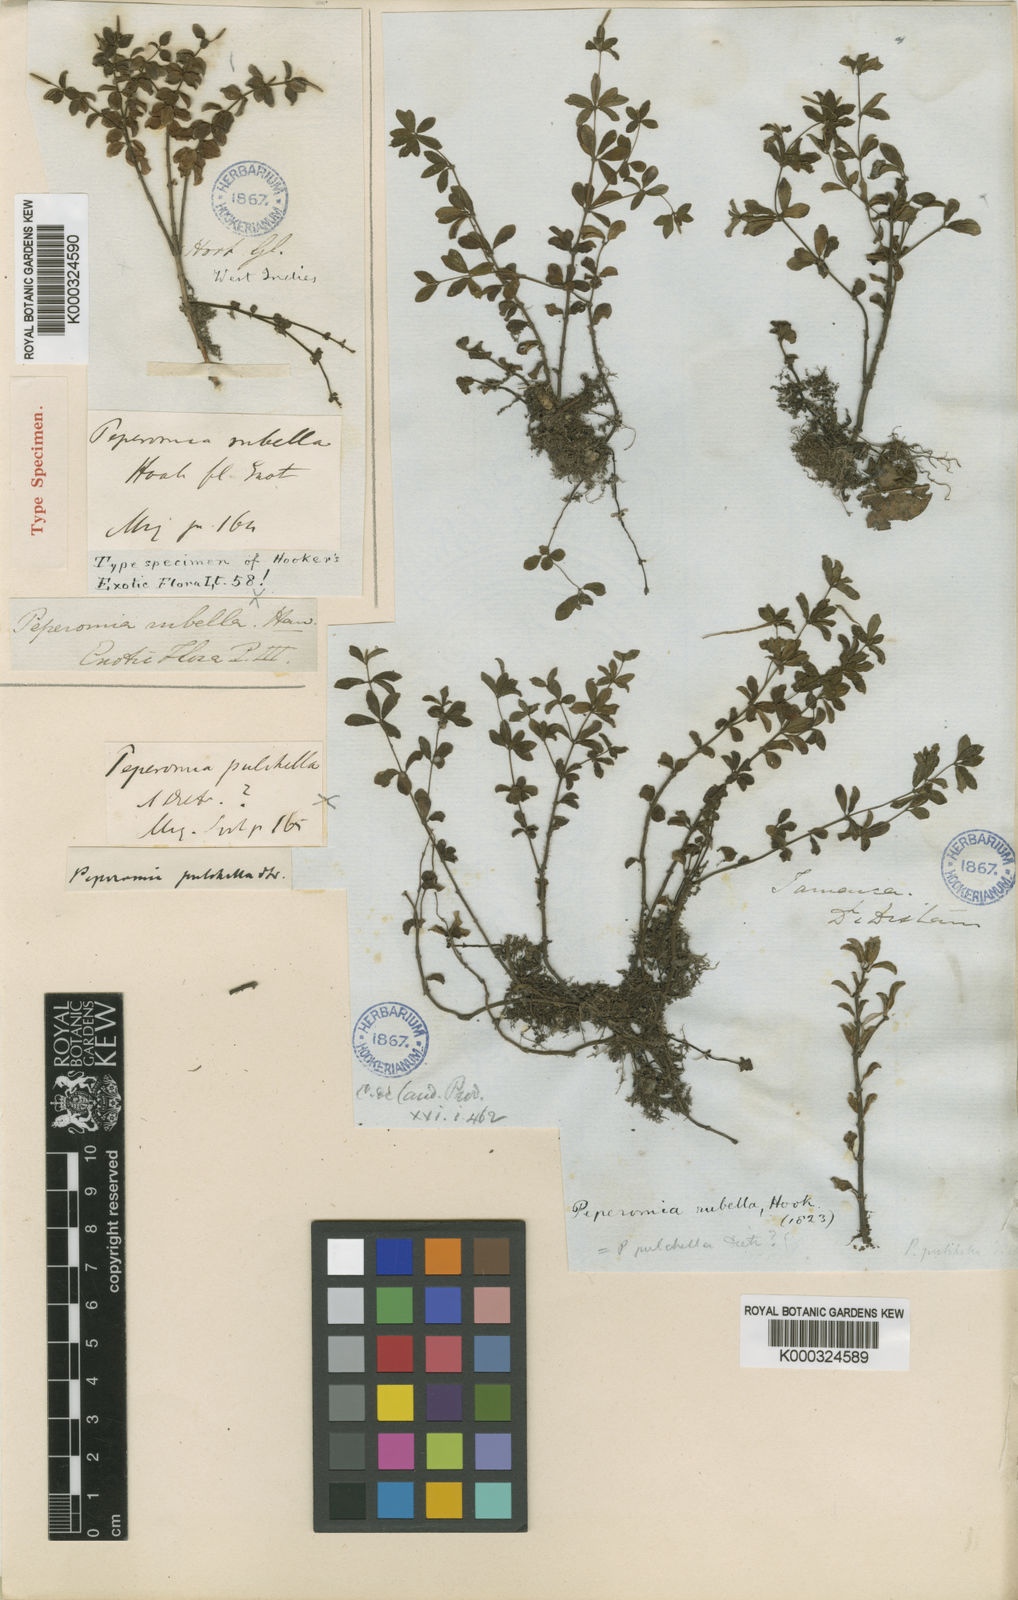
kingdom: Plantae
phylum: Tracheophyta
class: Magnoliopsida
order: Piperales
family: Piperaceae
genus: Peperomia
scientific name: Peperomia verticillata
